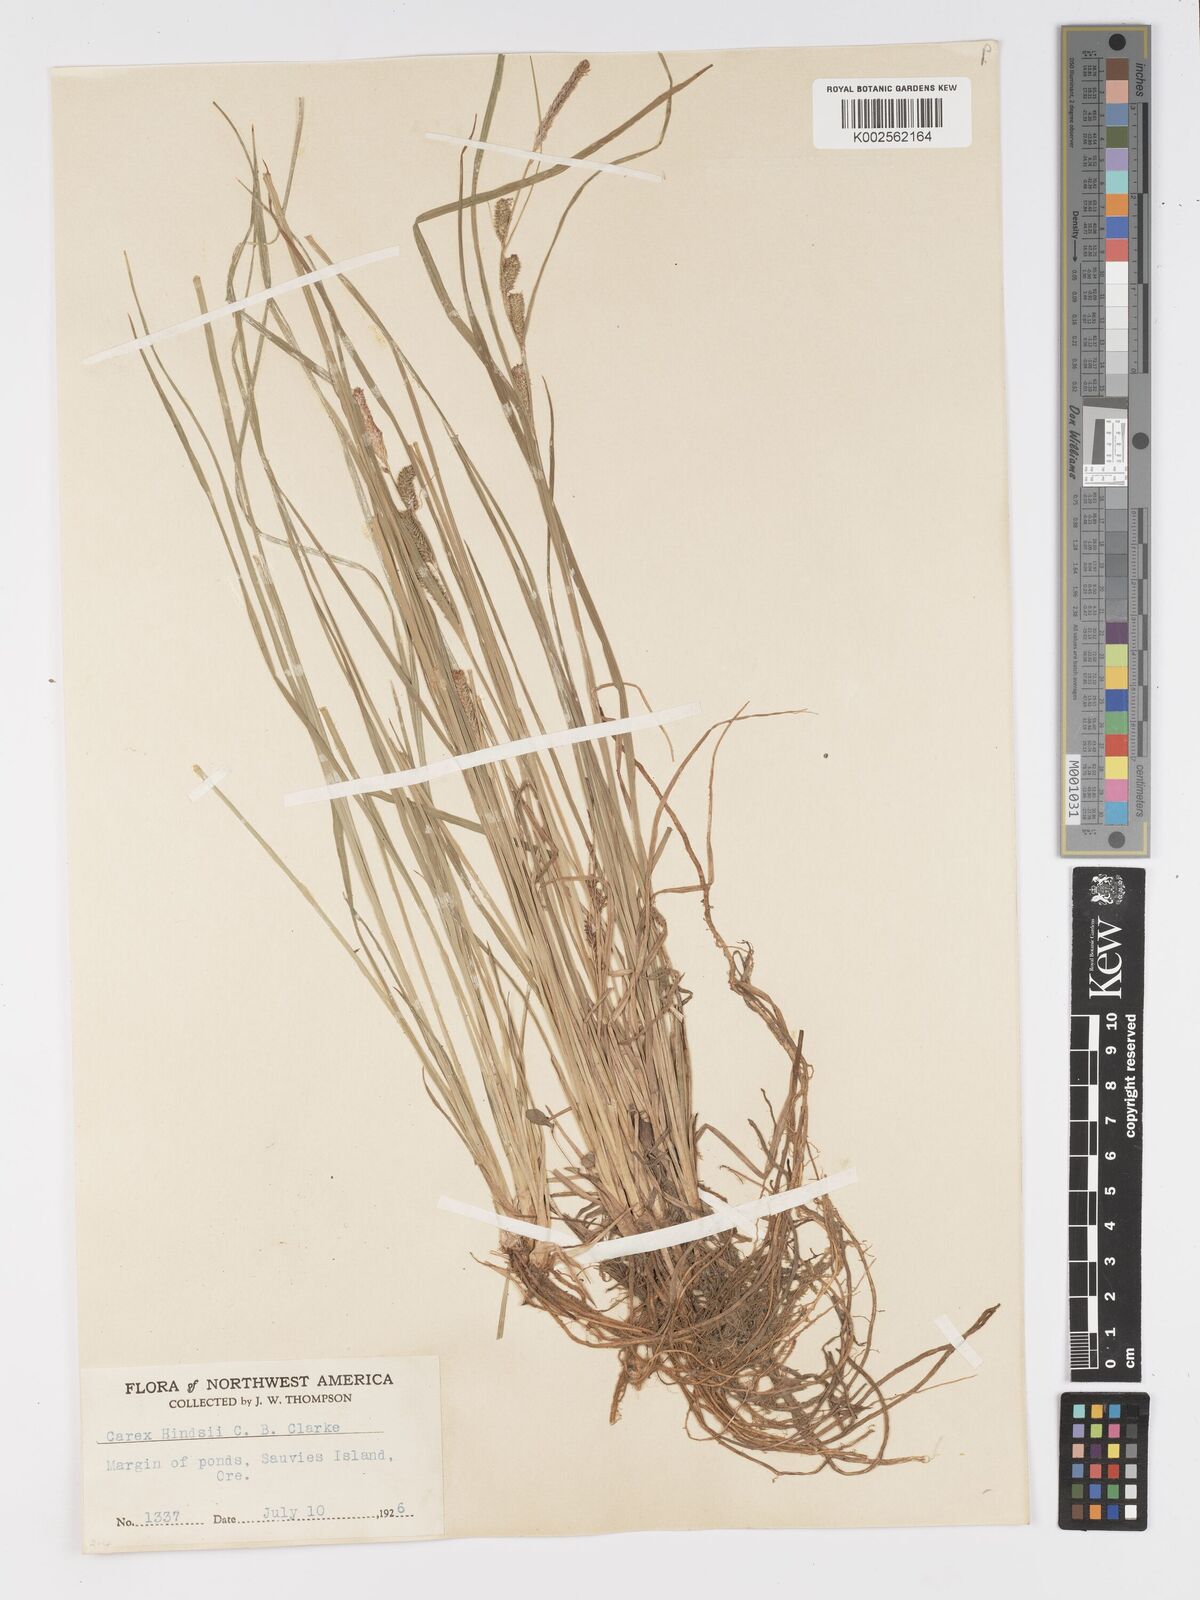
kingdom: Plantae
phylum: Tracheophyta
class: Liliopsida
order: Poales
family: Cyperaceae
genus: Carex
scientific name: Carex kelloggii
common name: Kellogg's sedge
